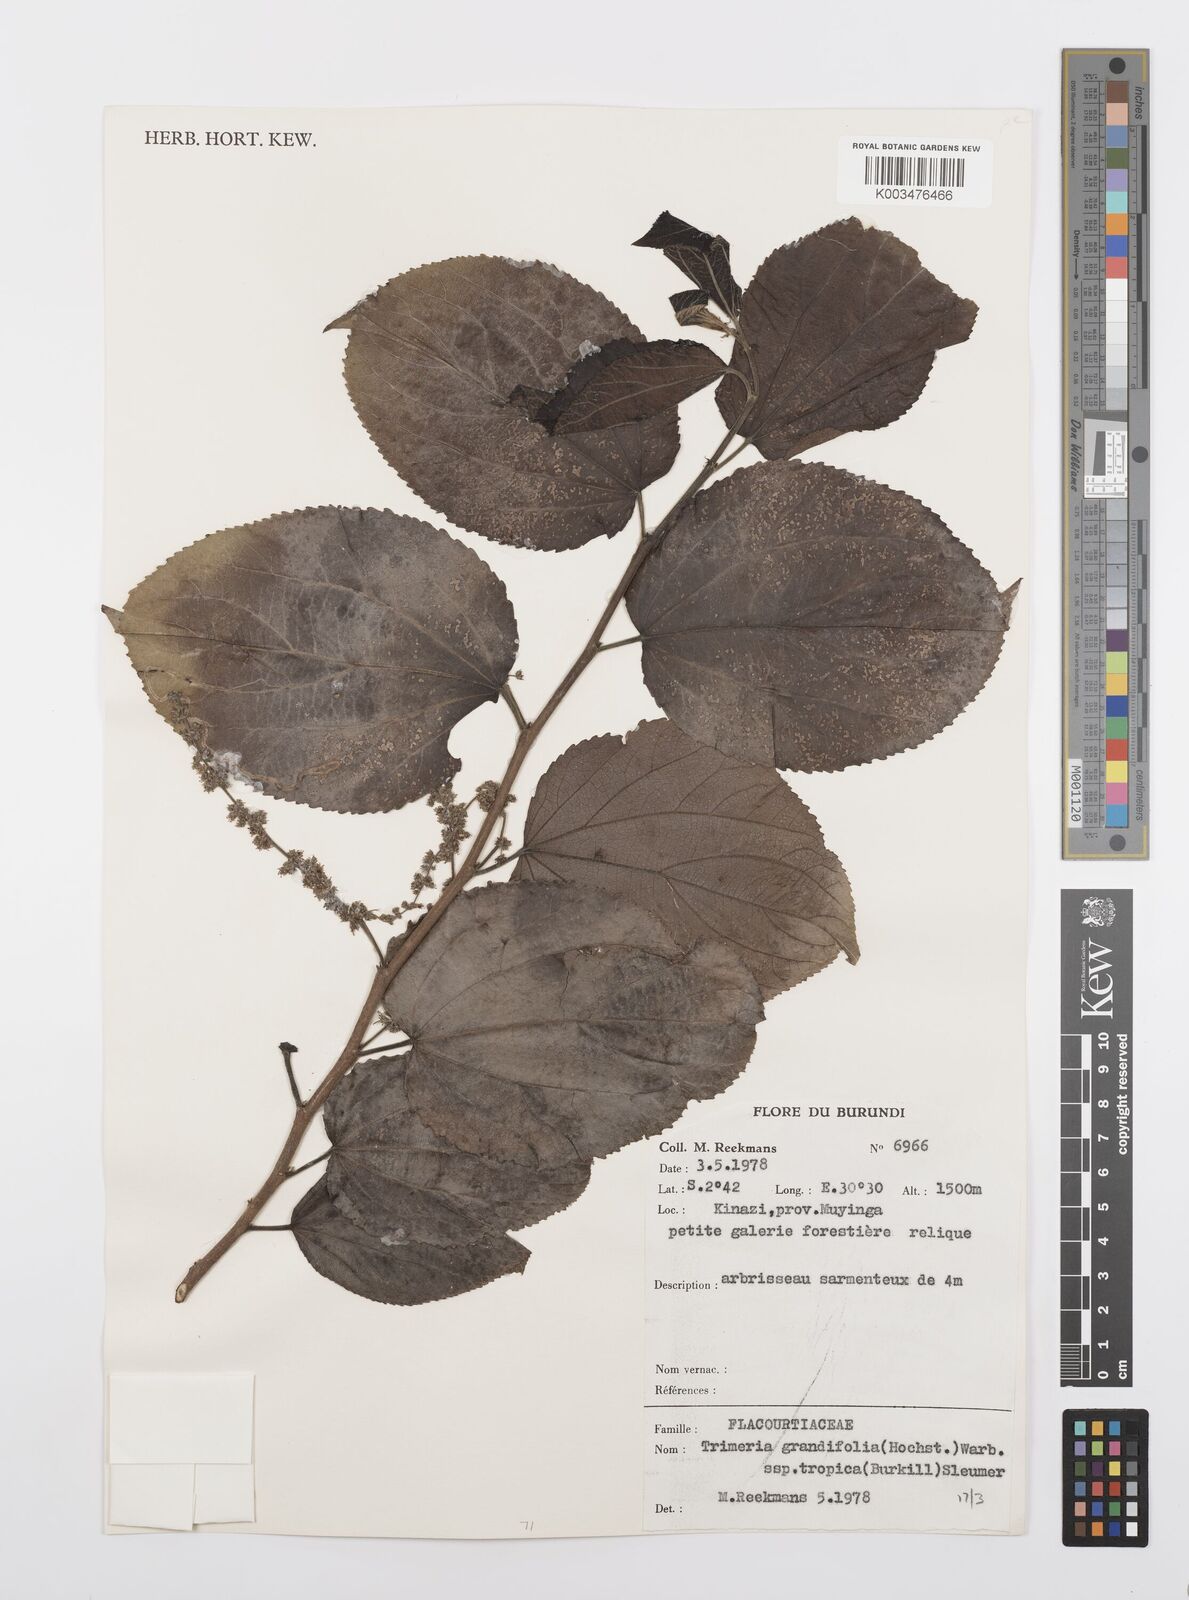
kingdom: Plantae
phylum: Tracheophyta
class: Magnoliopsida
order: Malpighiales
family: Salicaceae
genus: Trimeria
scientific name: Trimeria grandifolia
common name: Wild mulberry
